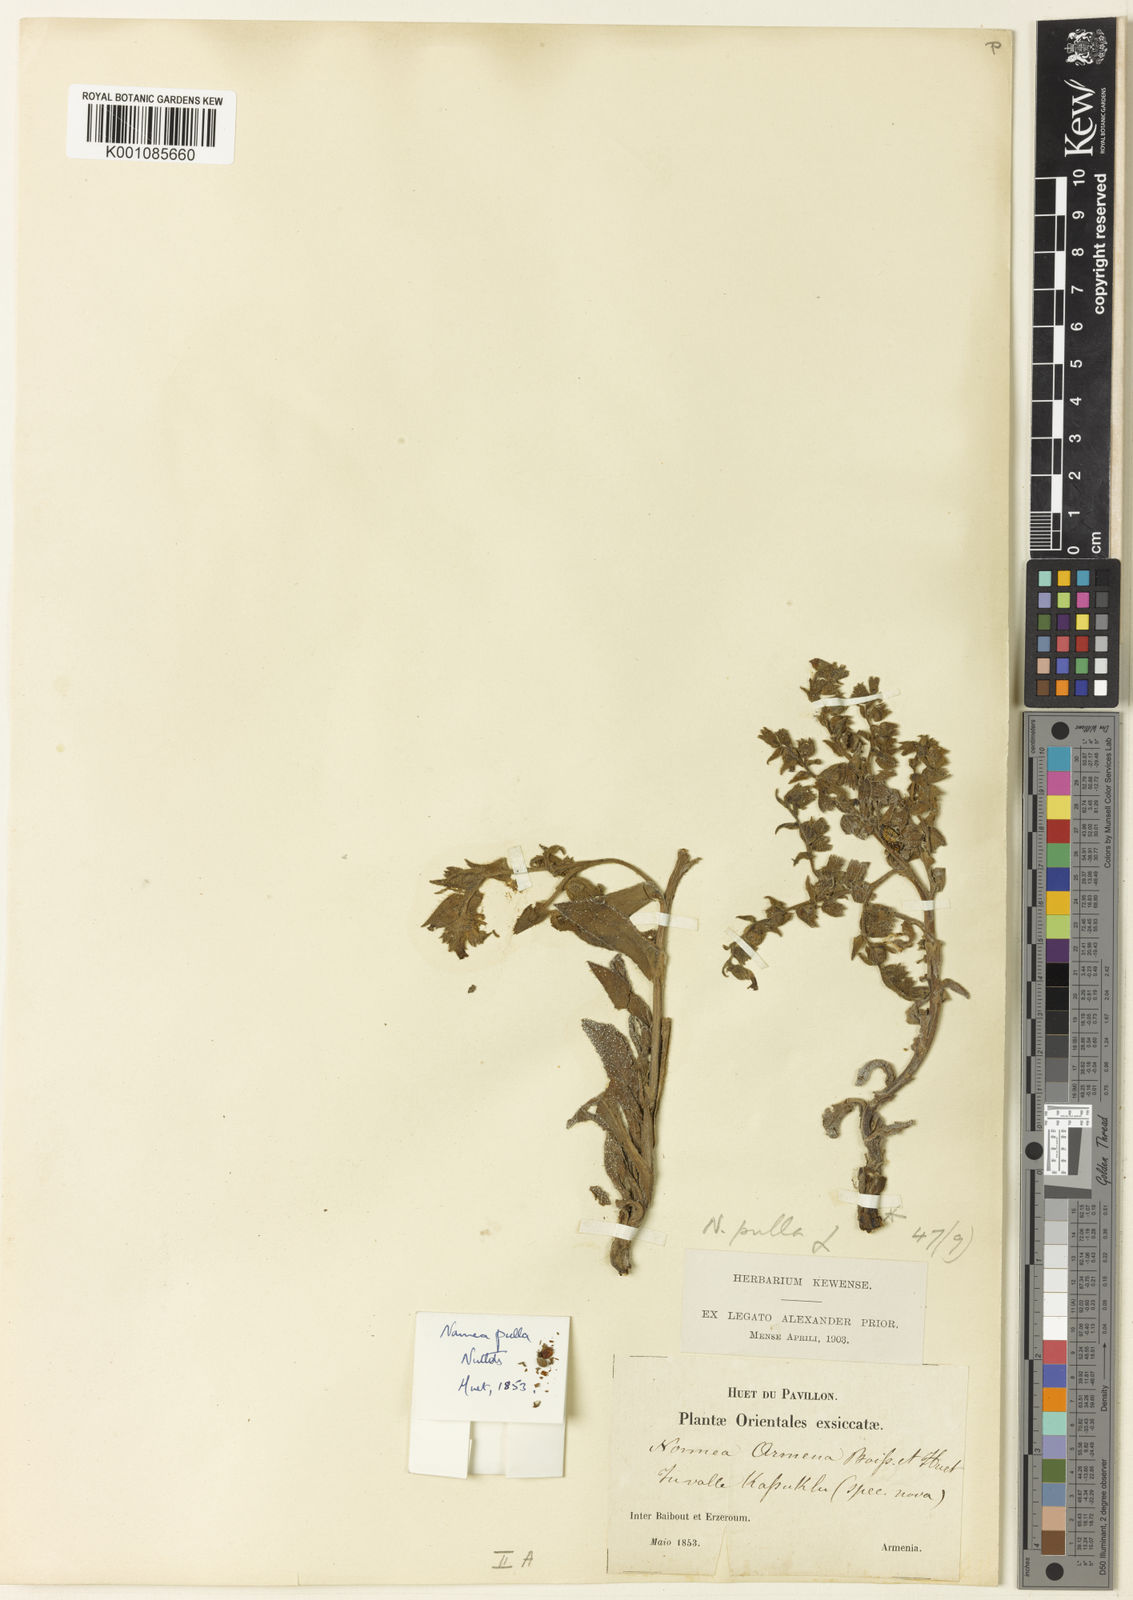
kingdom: Plantae
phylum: Tracheophyta
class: Magnoliopsida
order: Boraginales
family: Boraginaceae
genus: Nonea
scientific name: Nonea pulla
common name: Brown nonea
